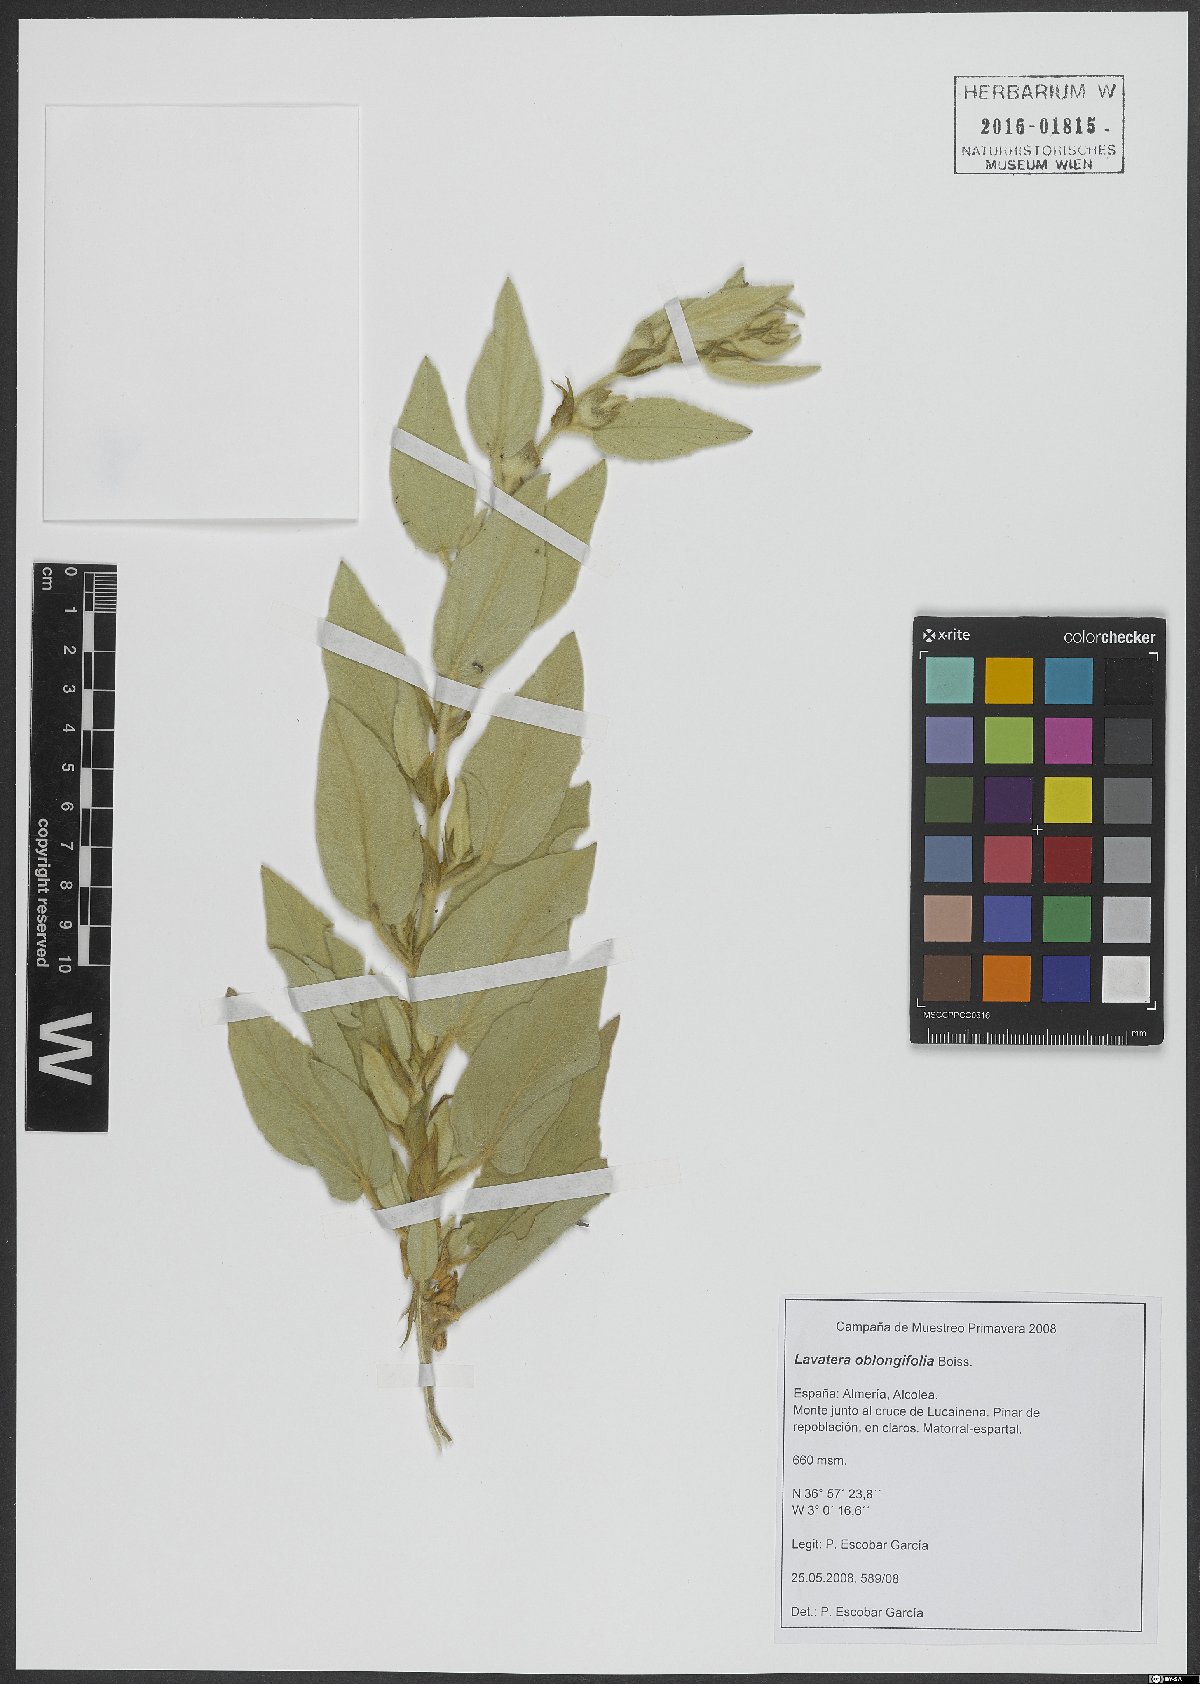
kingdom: Plantae
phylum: Tracheophyta
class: Magnoliopsida
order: Malvales
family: Malvaceae
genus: Malva
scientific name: Malva oblongifolia
